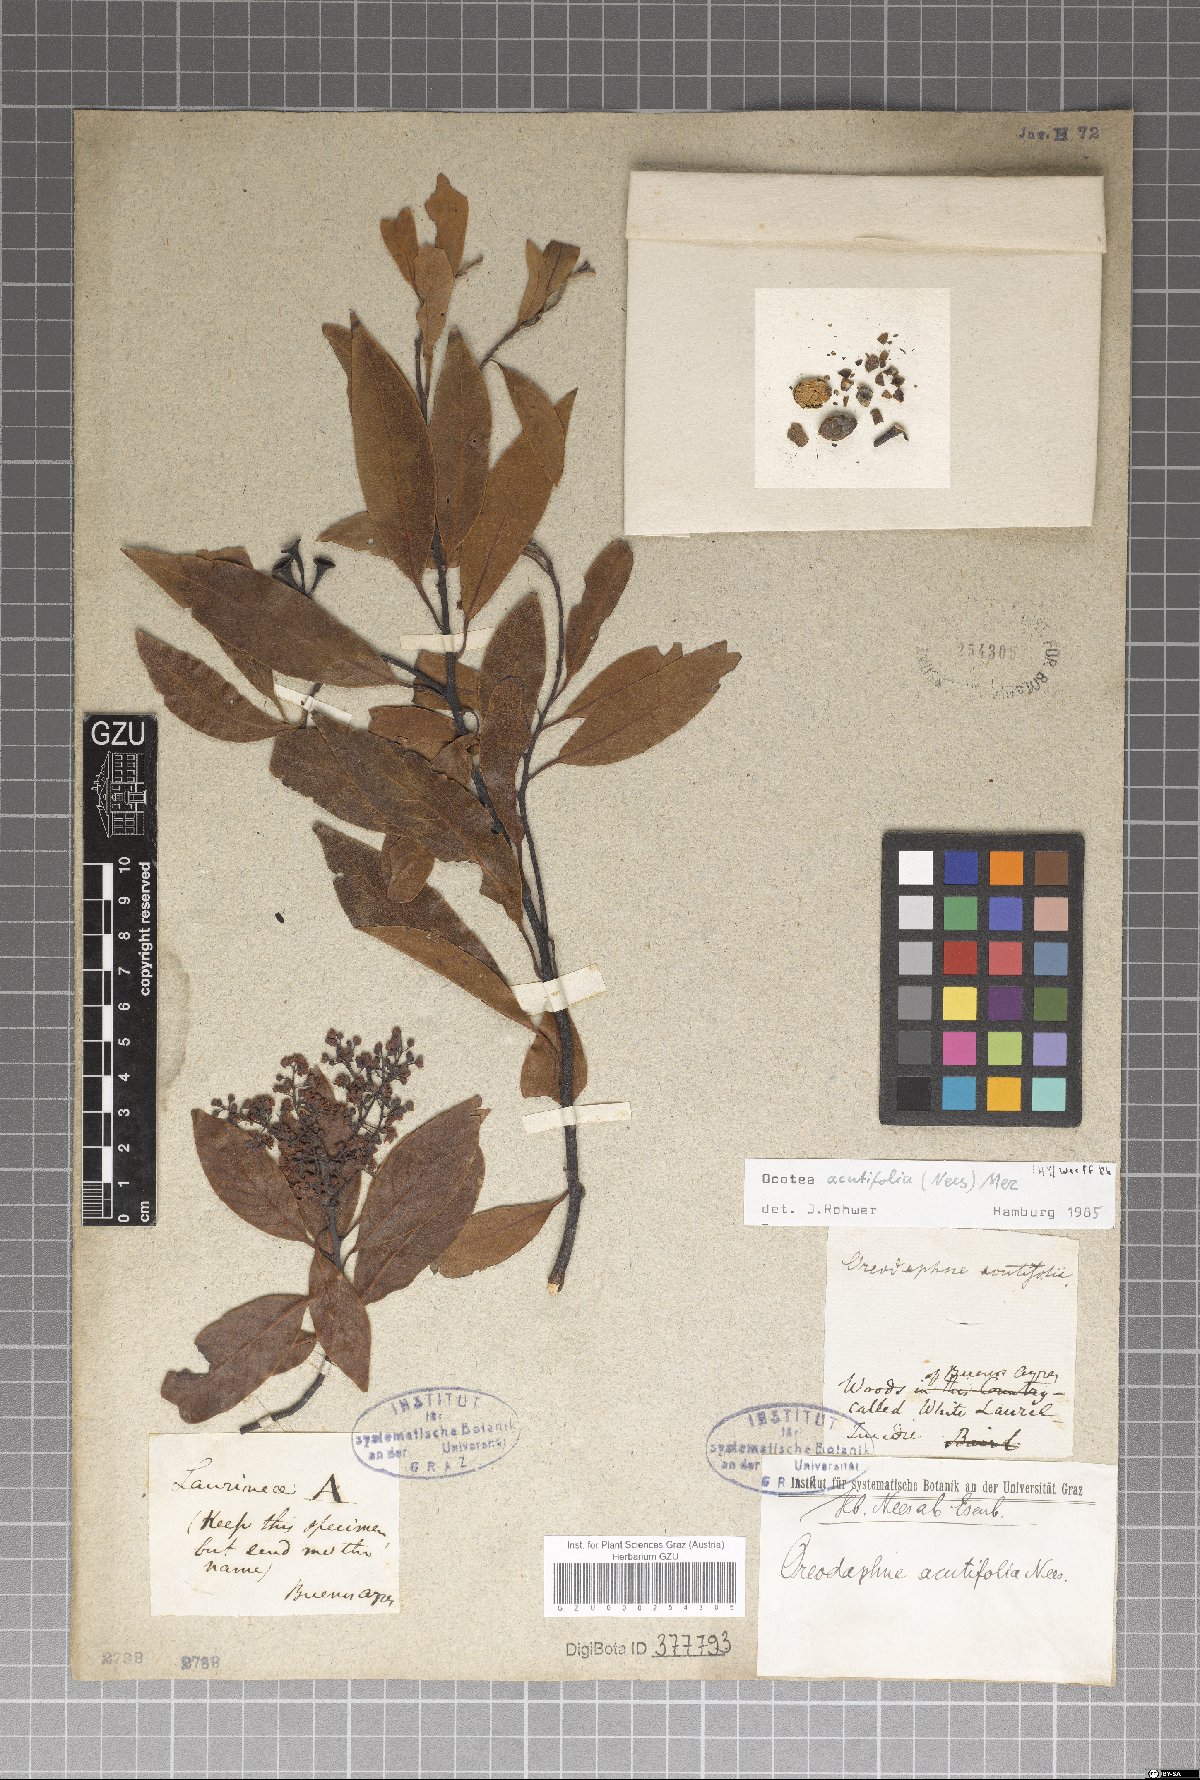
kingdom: Plantae
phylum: Tracheophyta
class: Magnoliopsida
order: Laurales
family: Lauraceae
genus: Ocotea
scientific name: Ocotea acutifolia
